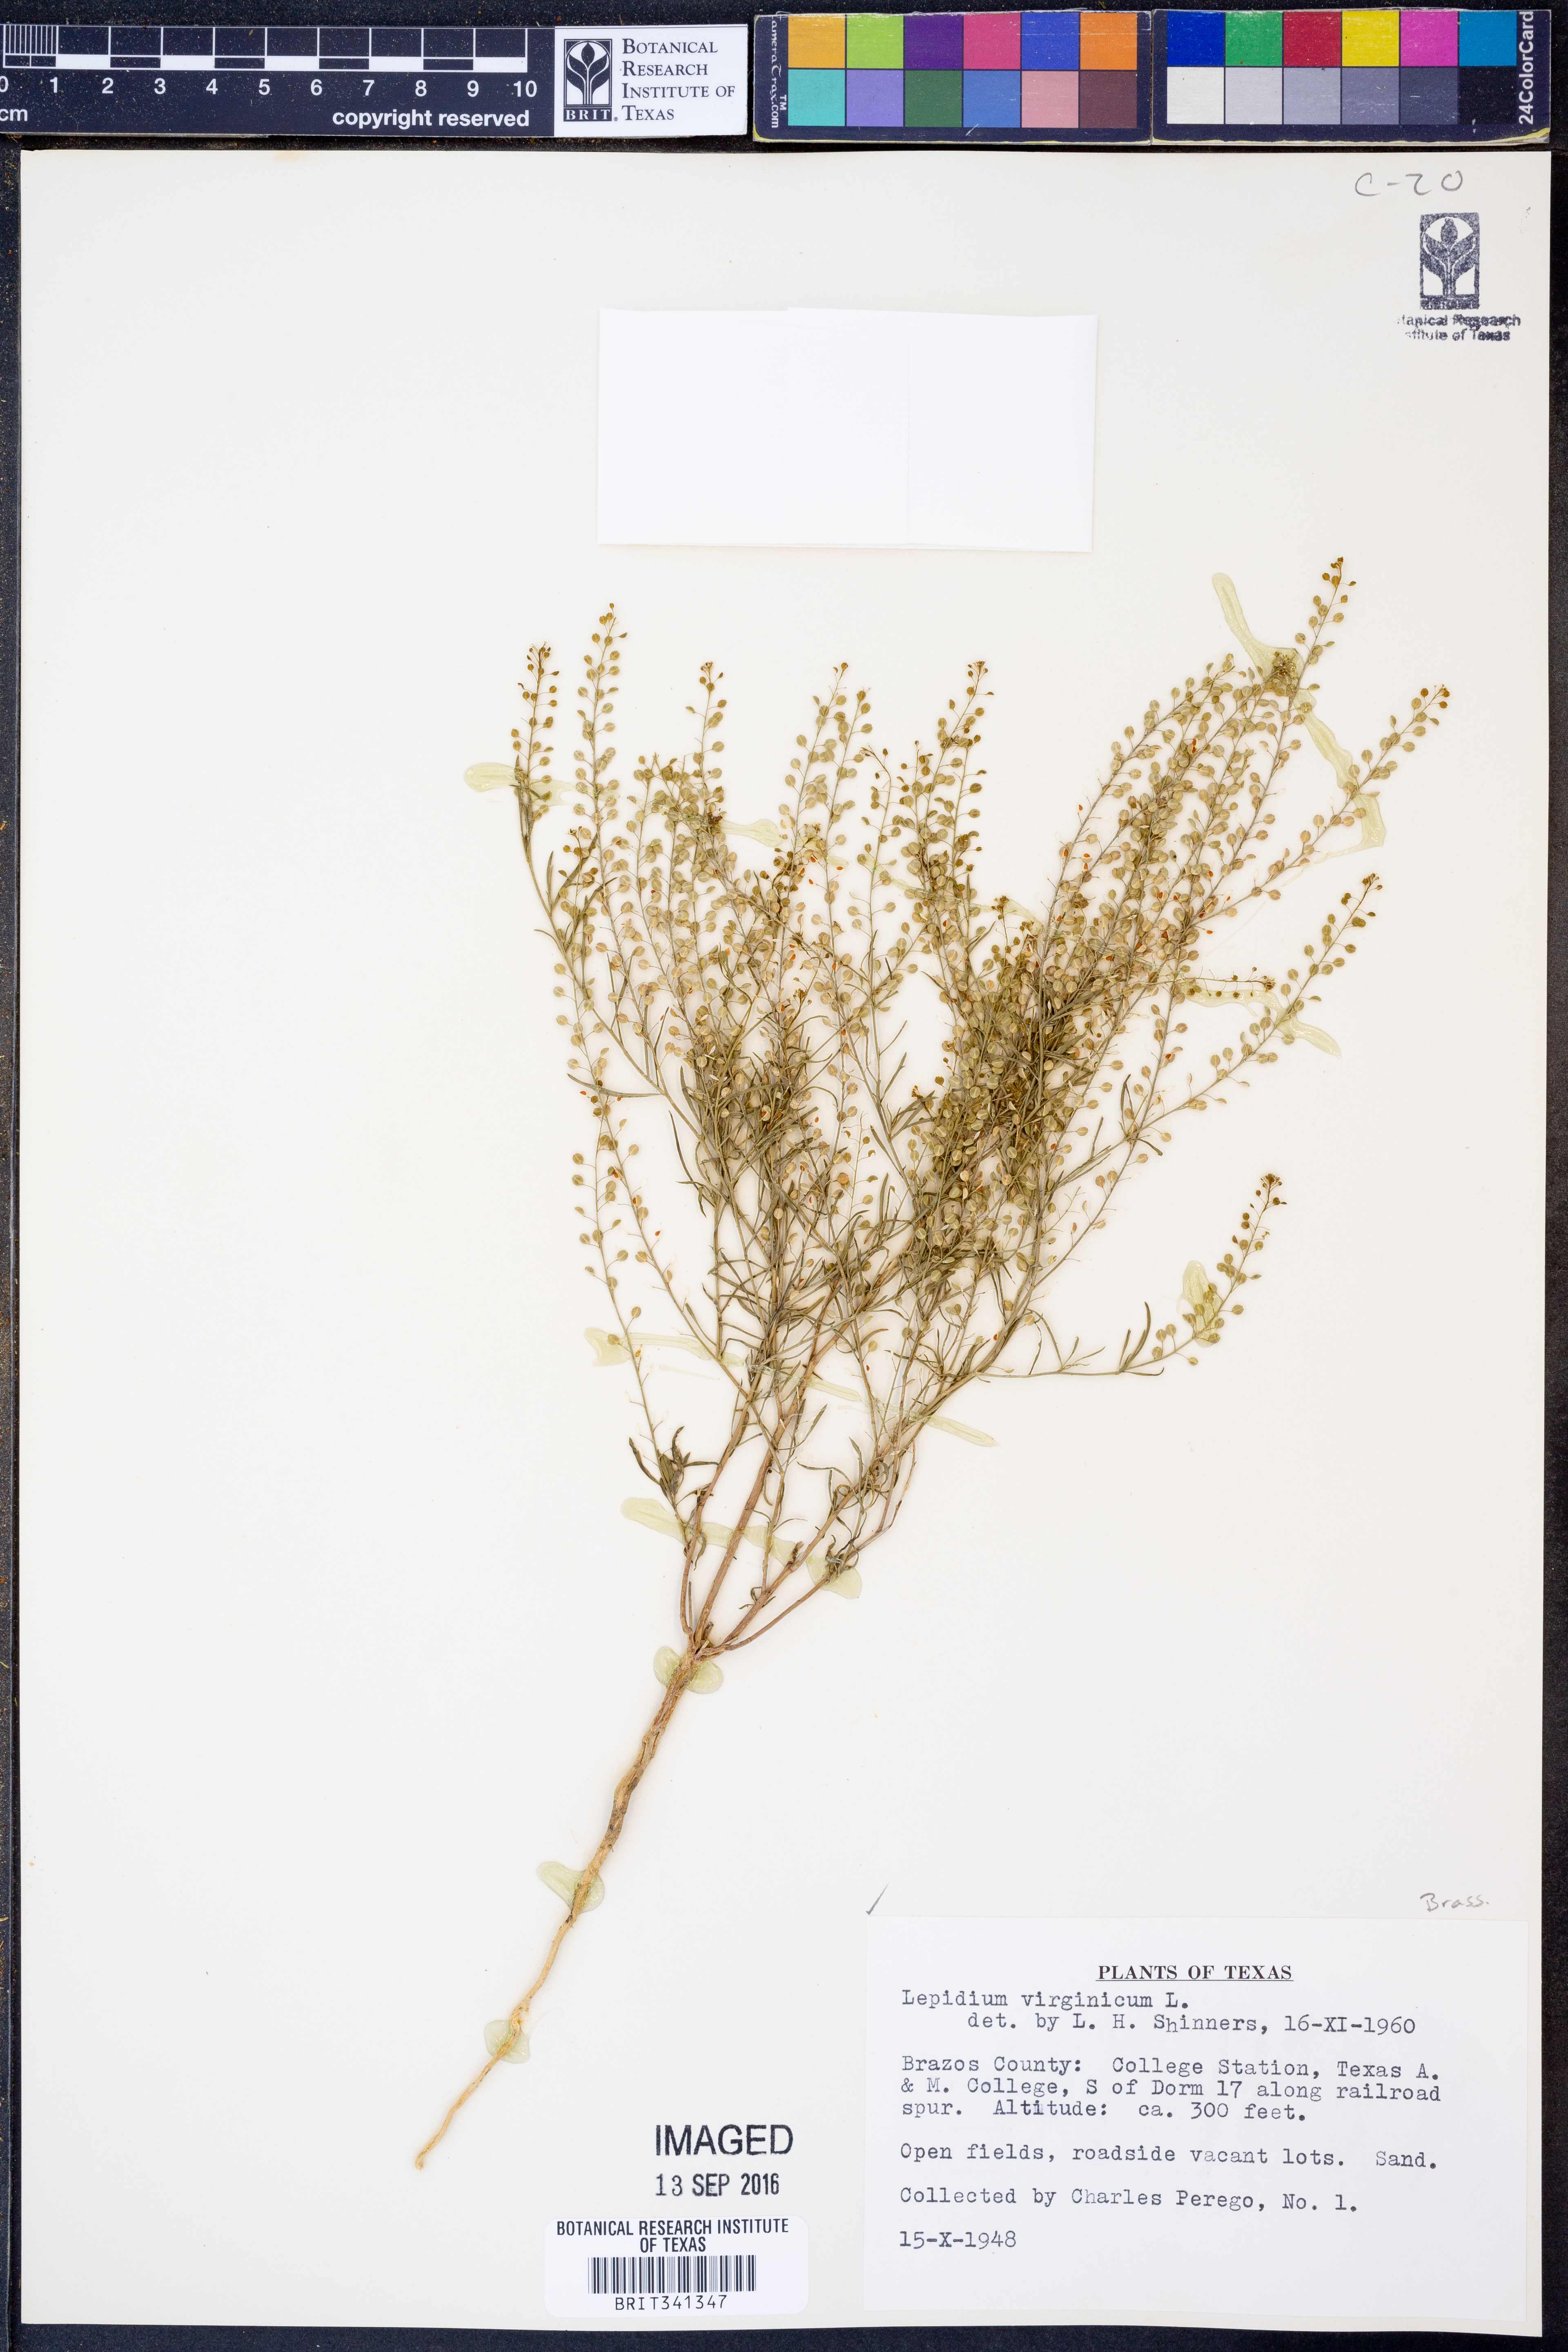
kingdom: Plantae
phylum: Tracheophyta
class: Magnoliopsida
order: Brassicales
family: Brassicaceae
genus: Lepidium
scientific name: Lepidium virginicum
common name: Least pepperwort
